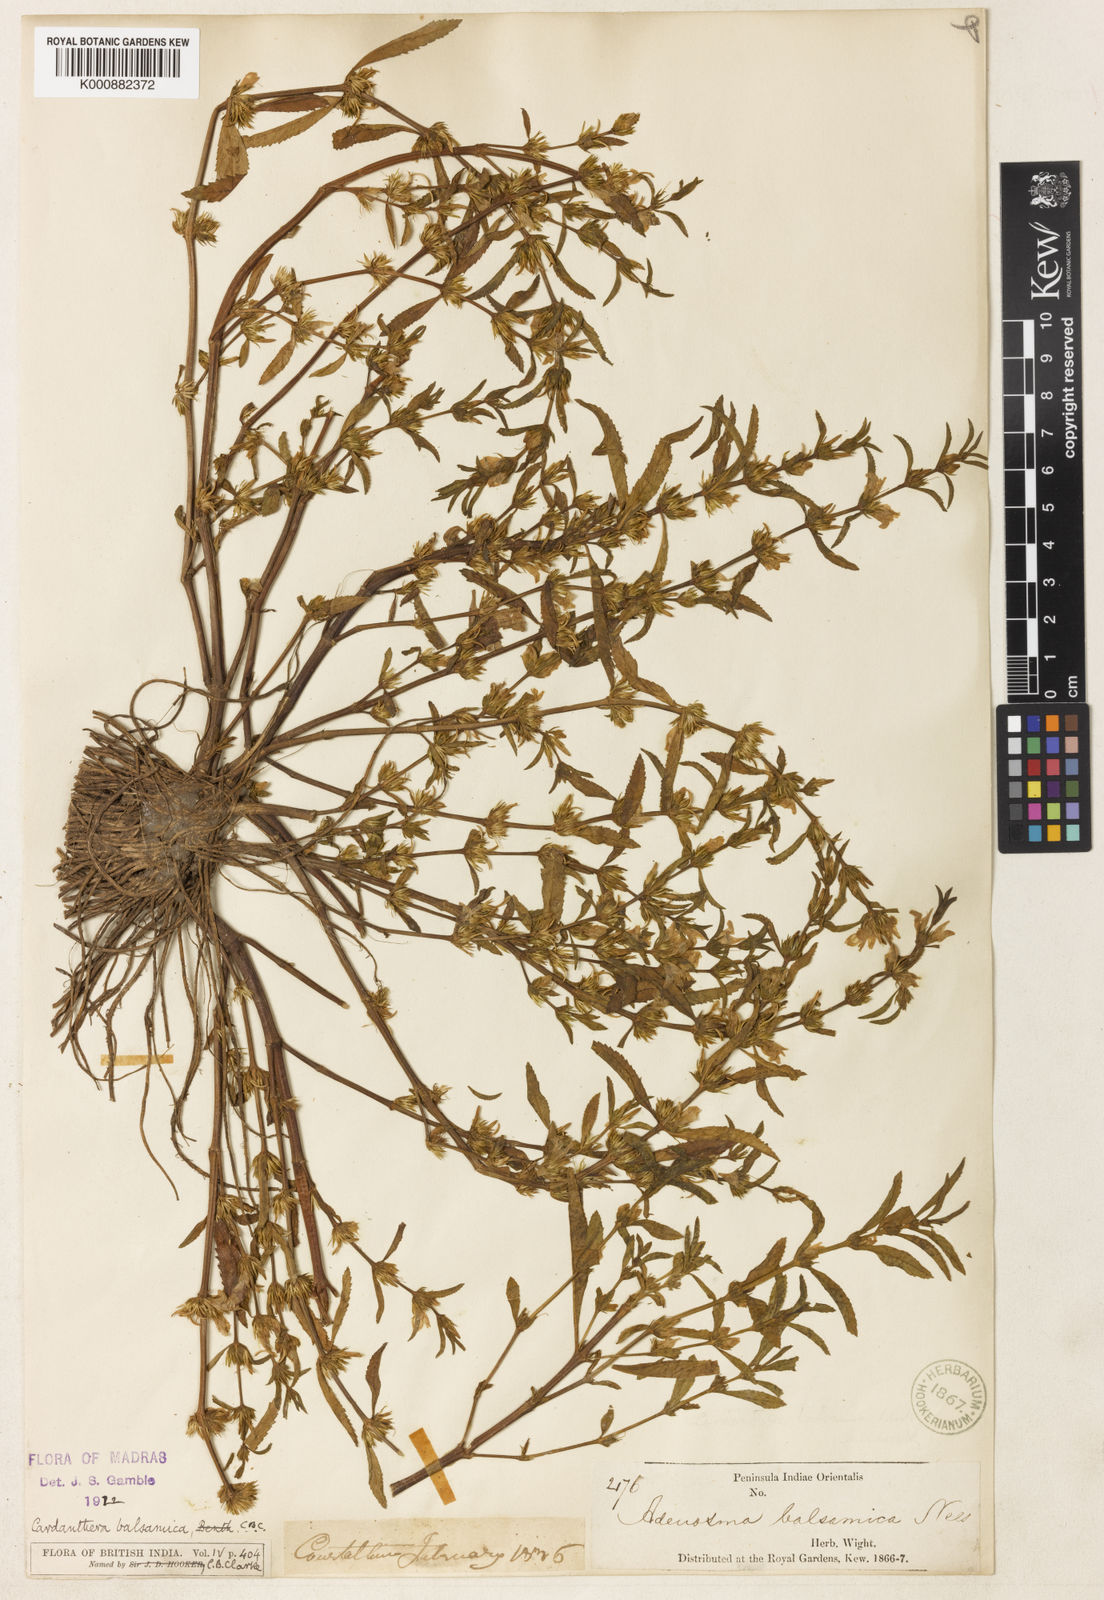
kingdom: Plantae
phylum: Tracheophyta
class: Magnoliopsida
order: Lamiales
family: Acanthaceae
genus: Hygrophila
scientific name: Hygrophila
